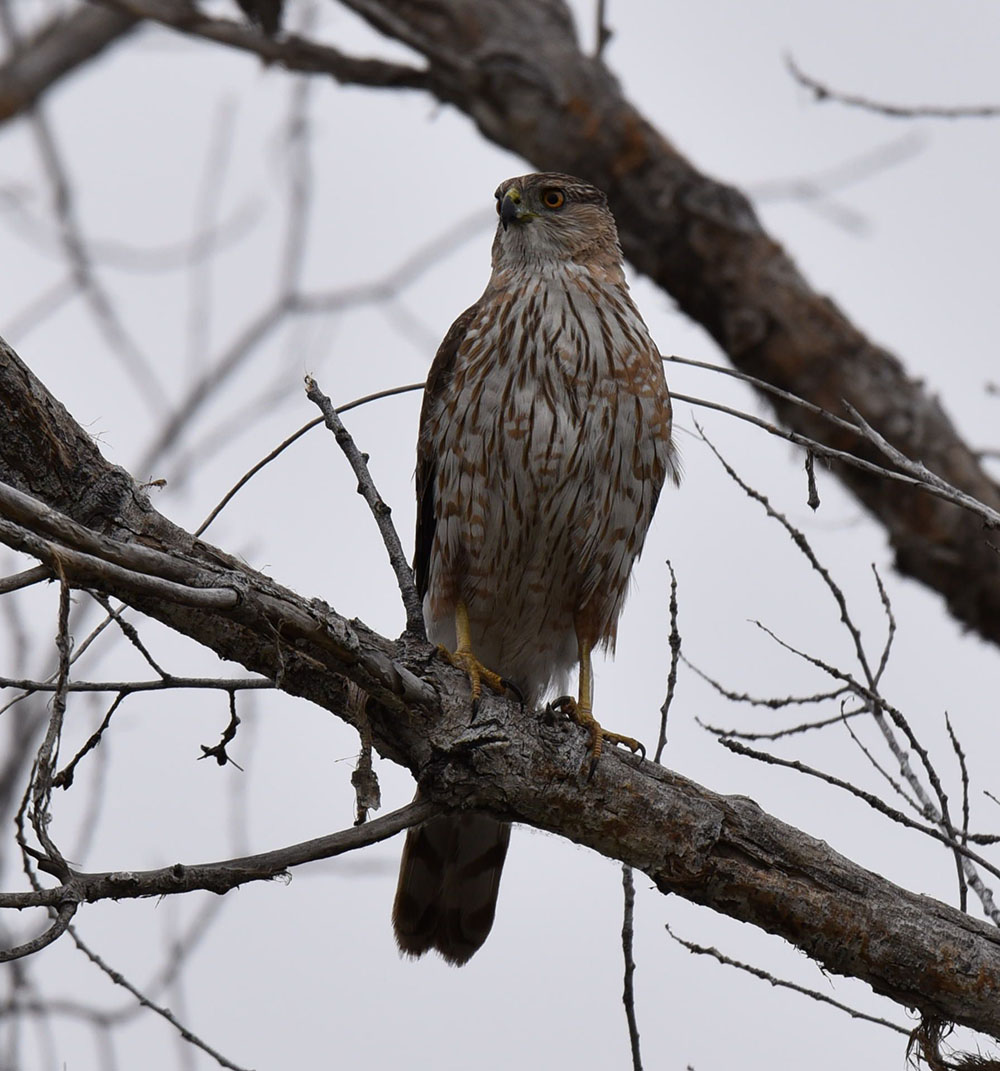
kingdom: Animalia
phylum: Chordata
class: Aves
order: Accipitriformes
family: Accipitridae
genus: Accipiter
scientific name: Accipiter cooperii
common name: Cooper's hawk
